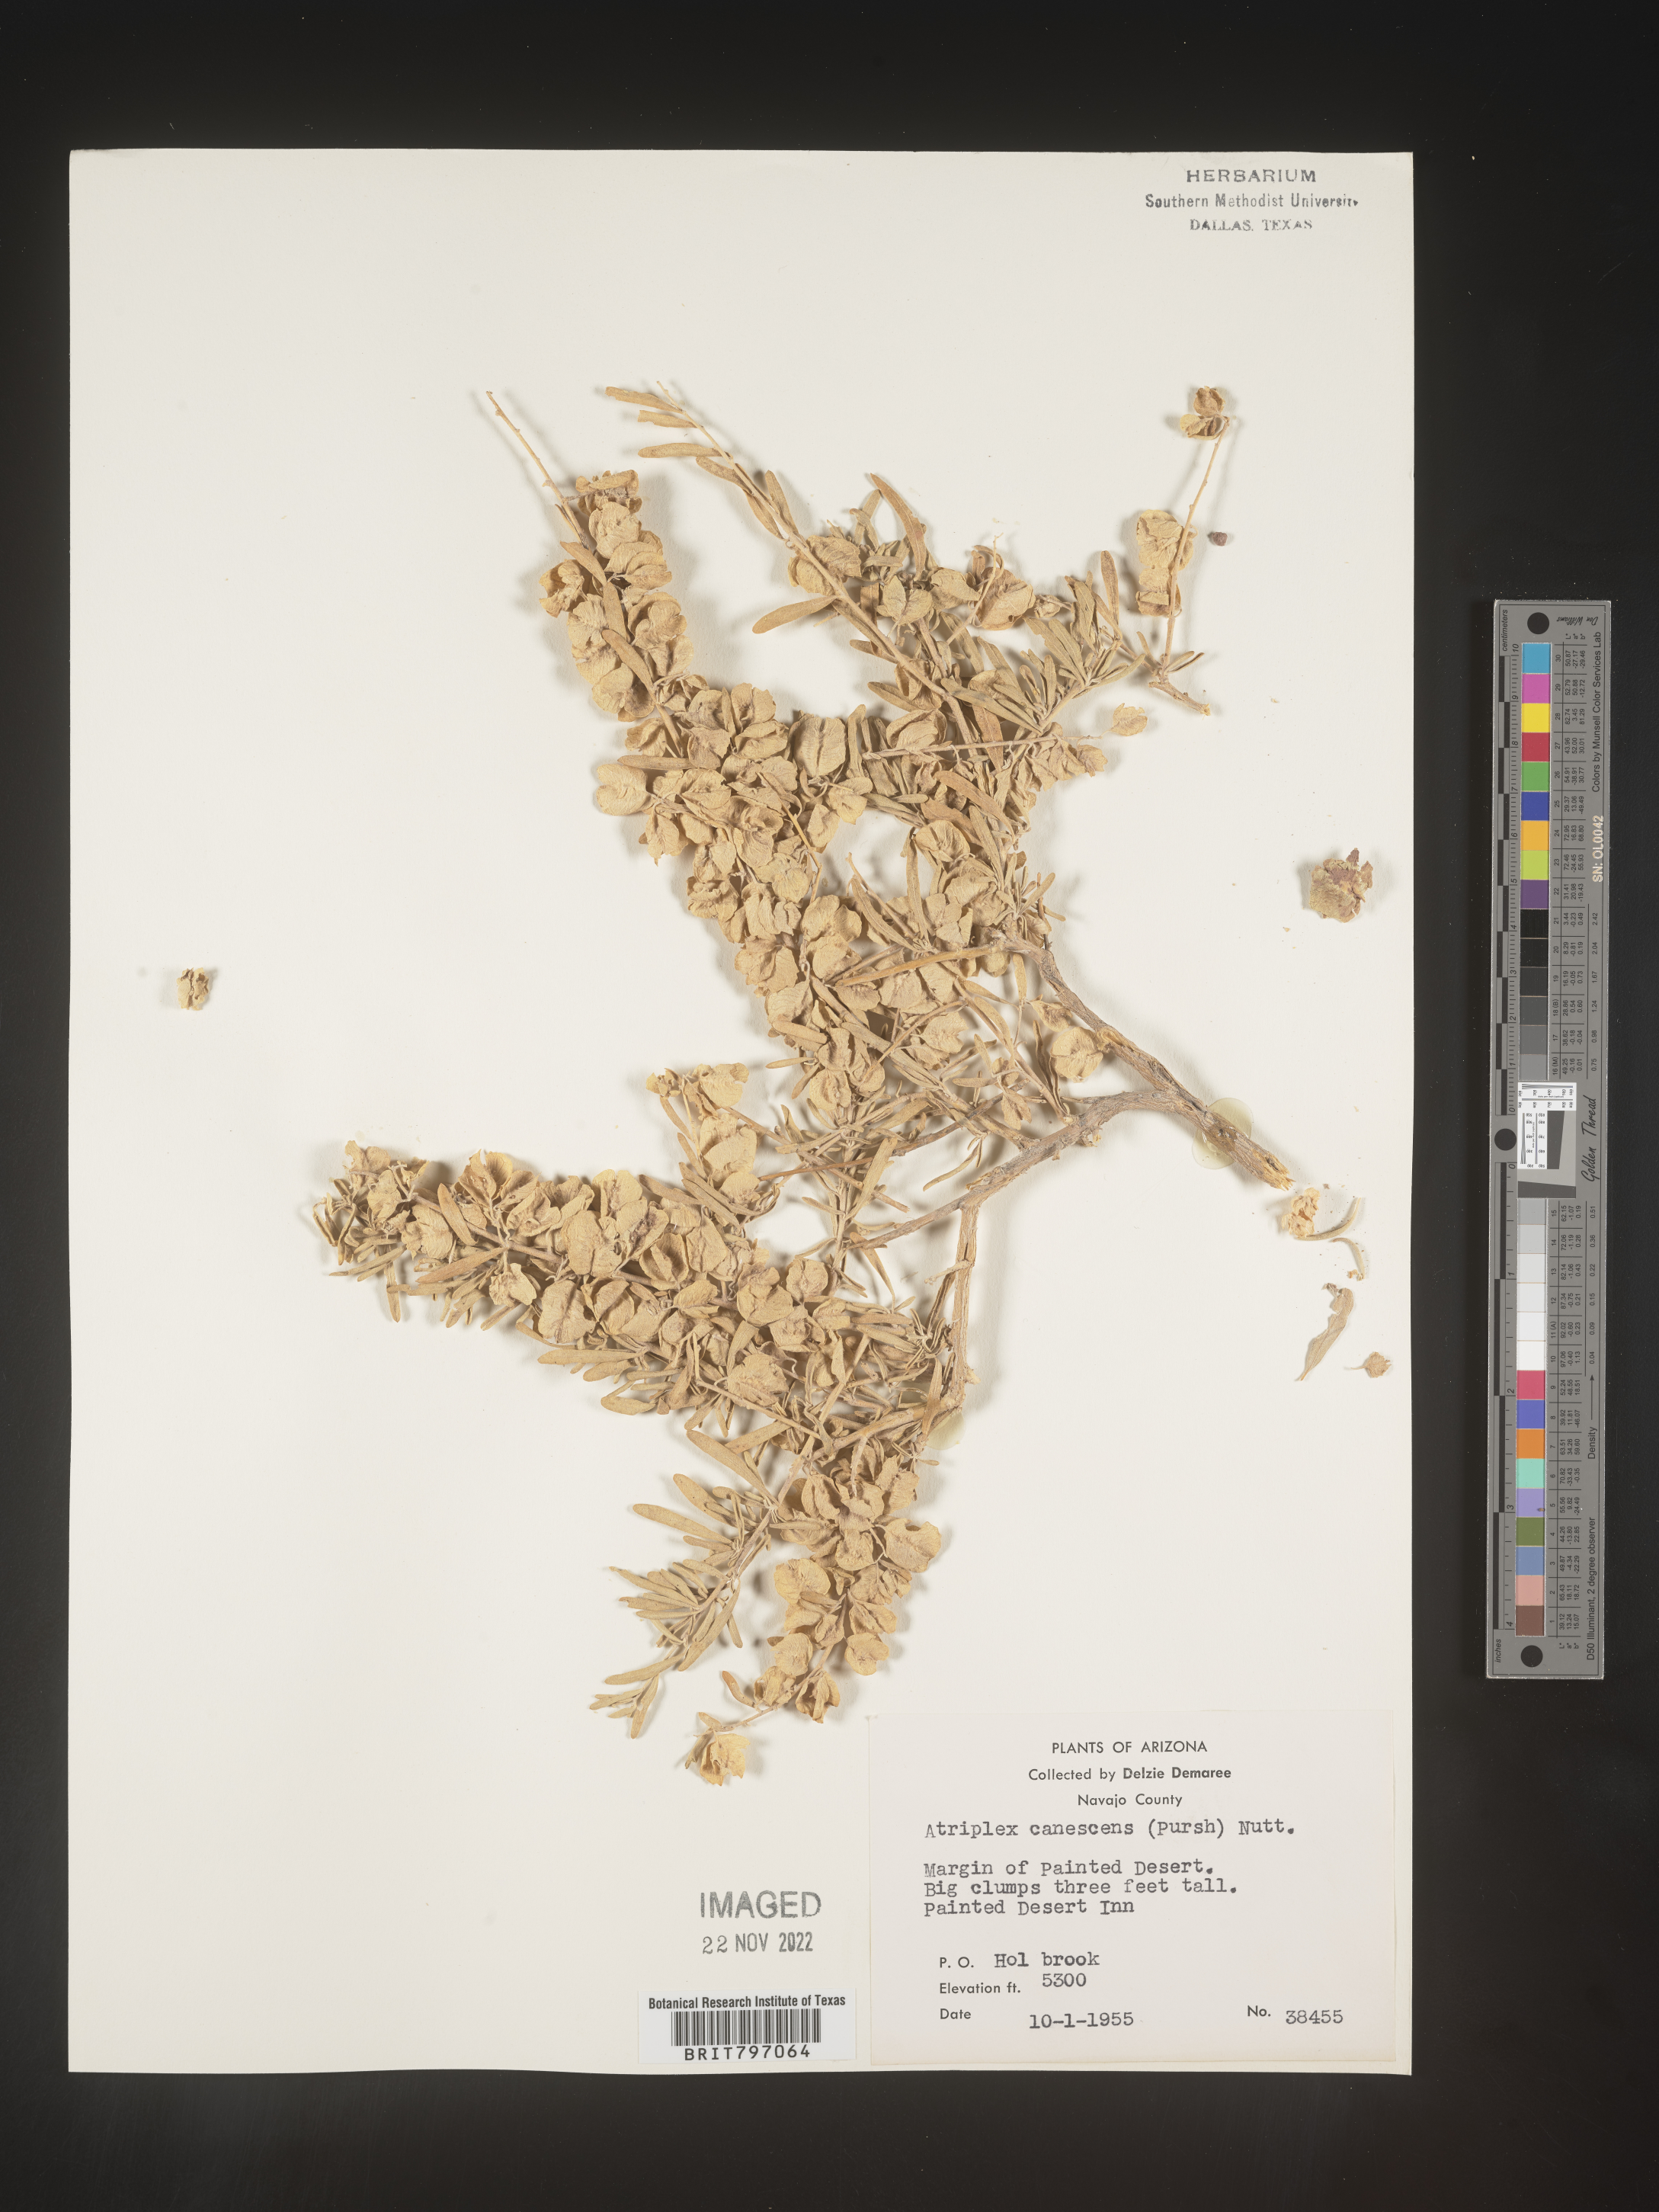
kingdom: Plantae
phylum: Tracheophyta
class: Magnoliopsida
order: Caryophyllales
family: Amaranthaceae
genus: Atriplex
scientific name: Atriplex canescens
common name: Four-wing saltbush
